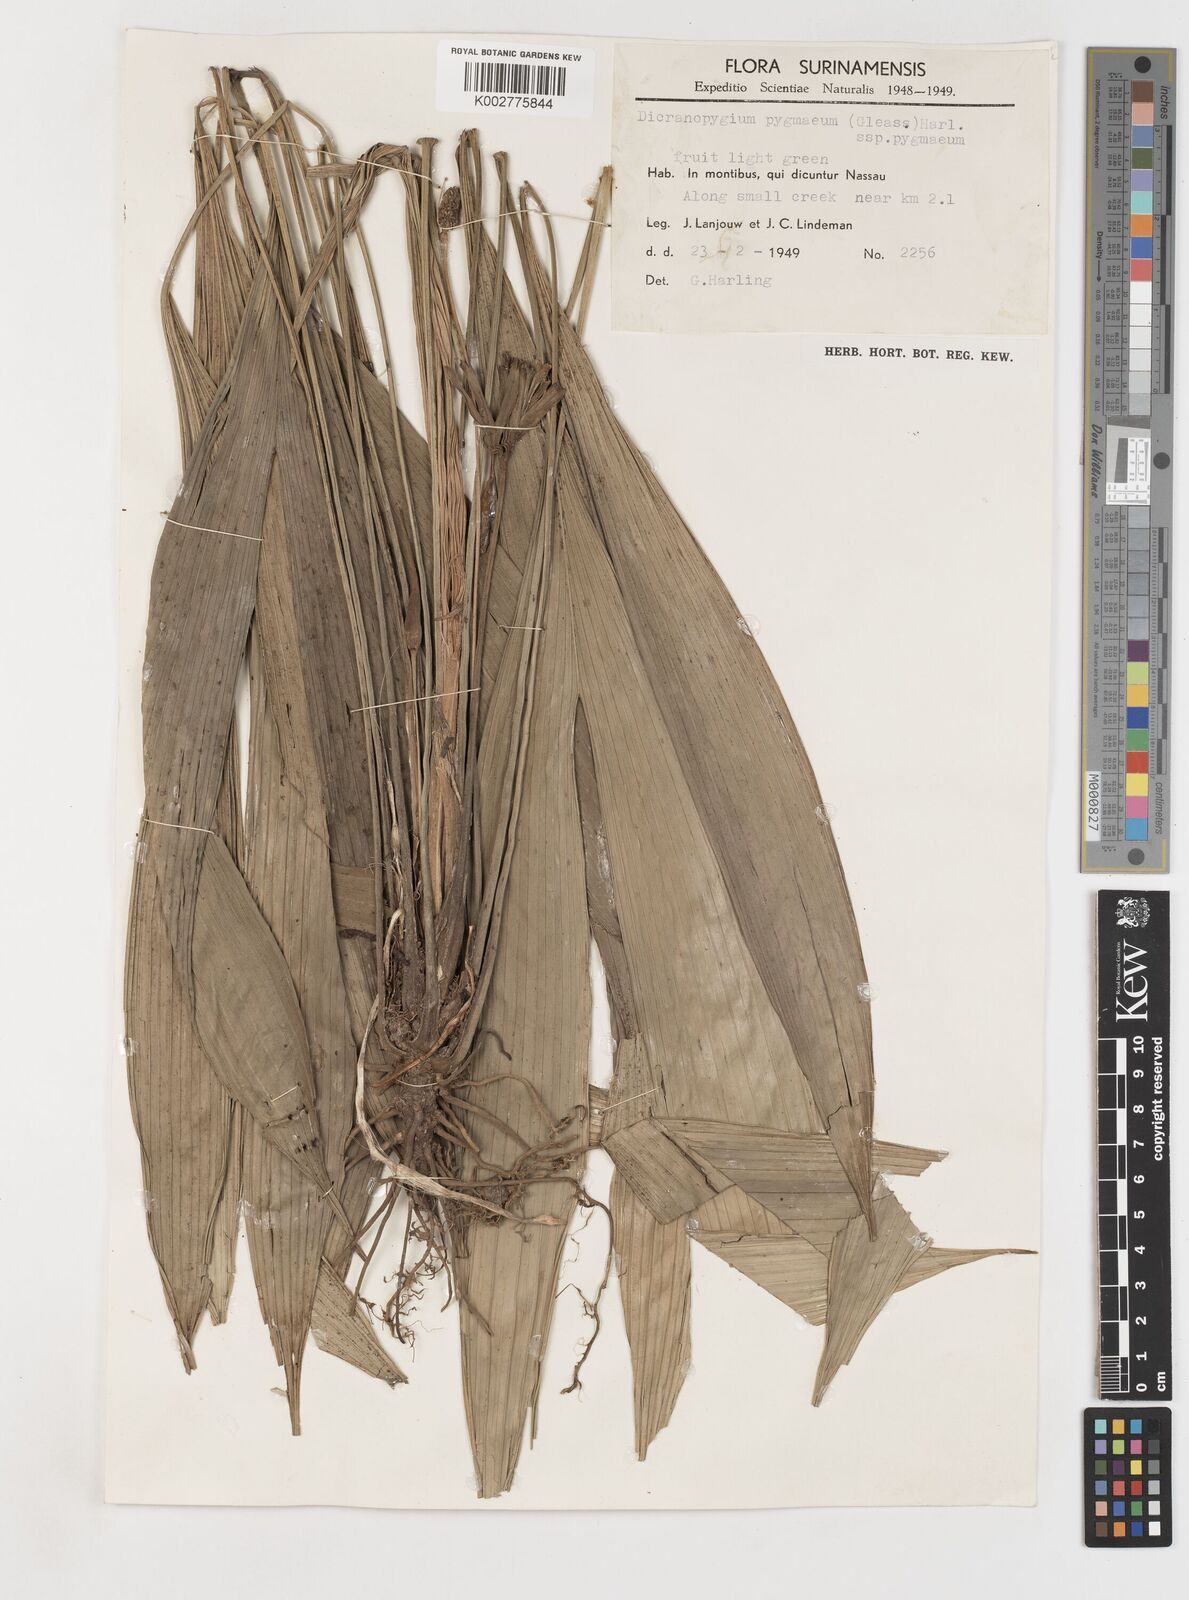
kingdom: Plantae
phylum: Tracheophyta
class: Liliopsida
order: Pandanales
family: Cyclanthaceae
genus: Dicranopygium
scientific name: Dicranopygium pygmaeum
